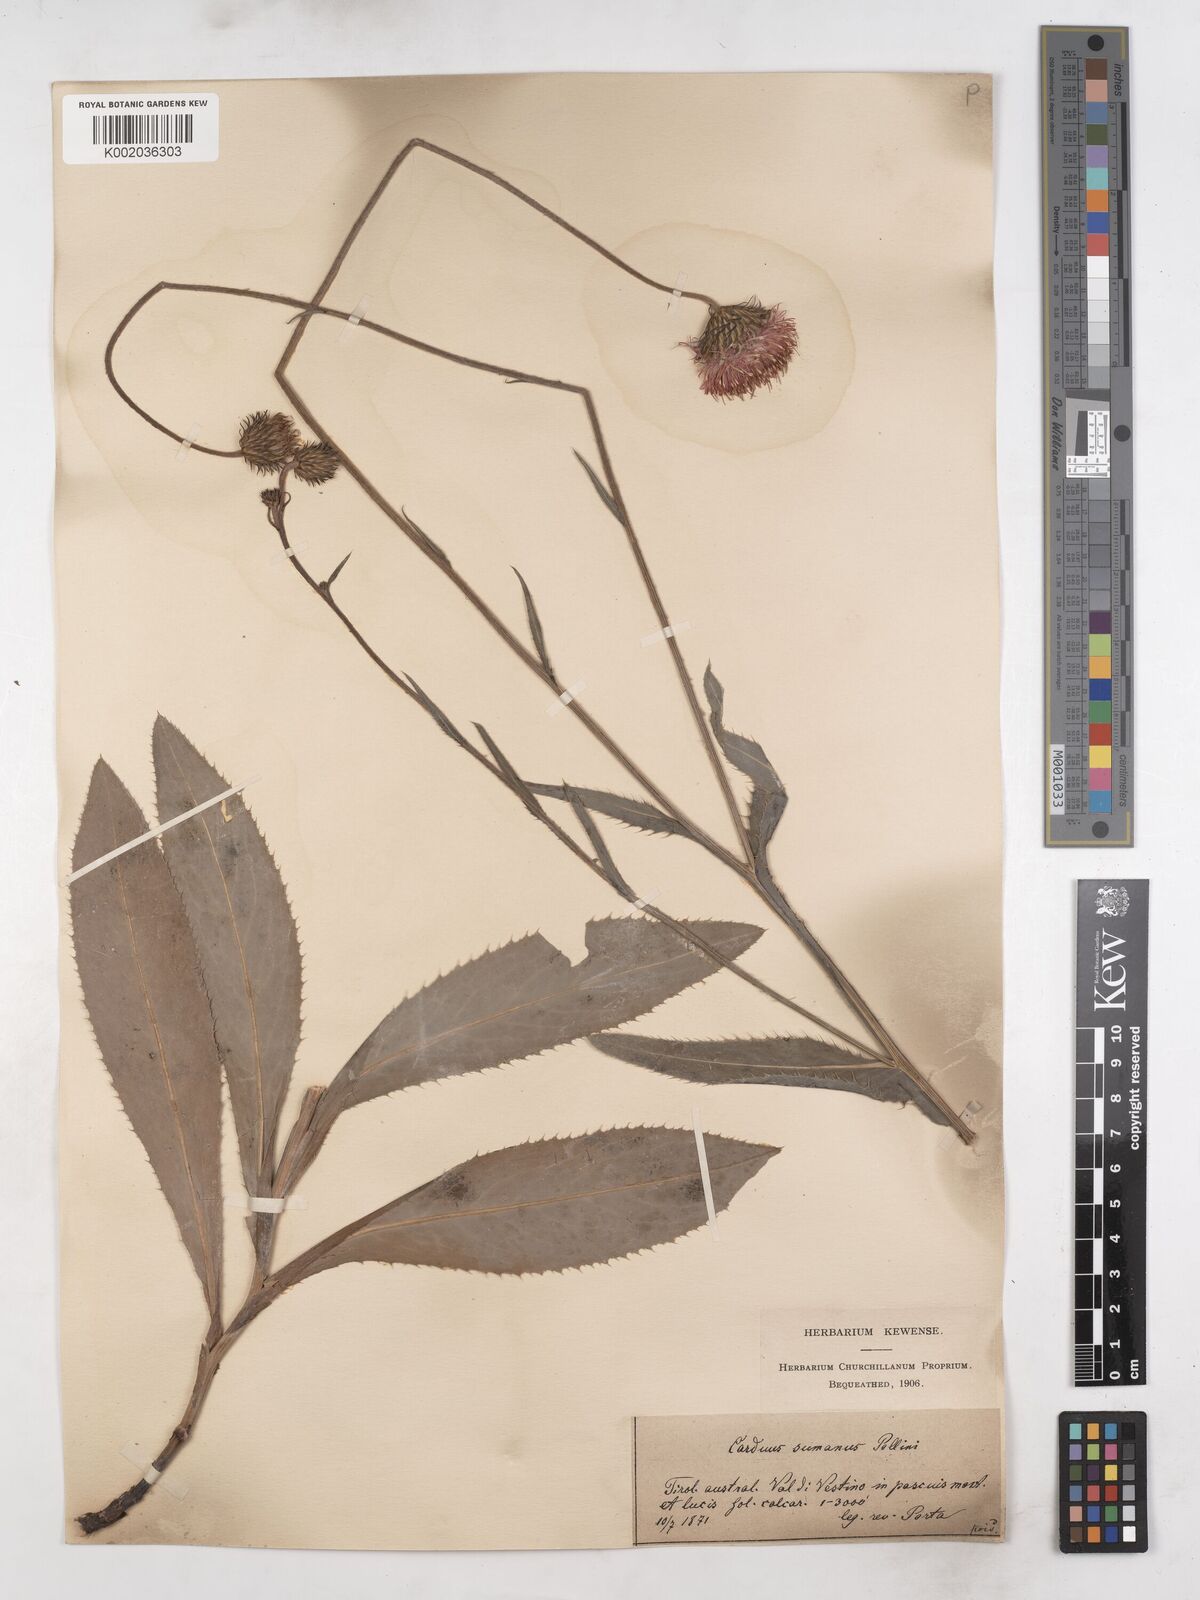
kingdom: Plantae
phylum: Tracheophyta
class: Magnoliopsida
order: Asterales
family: Asteraceae
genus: Carduus
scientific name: Carduus defloratus
